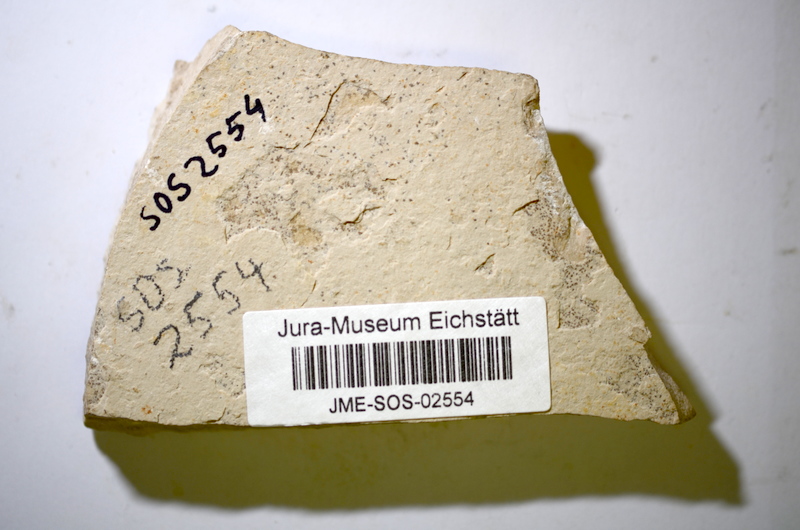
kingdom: Animalia
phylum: Chordata
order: Salmoniformes
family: Orthogonikleithridae
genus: Leptolepides
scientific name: Leptolepides haerteisi
